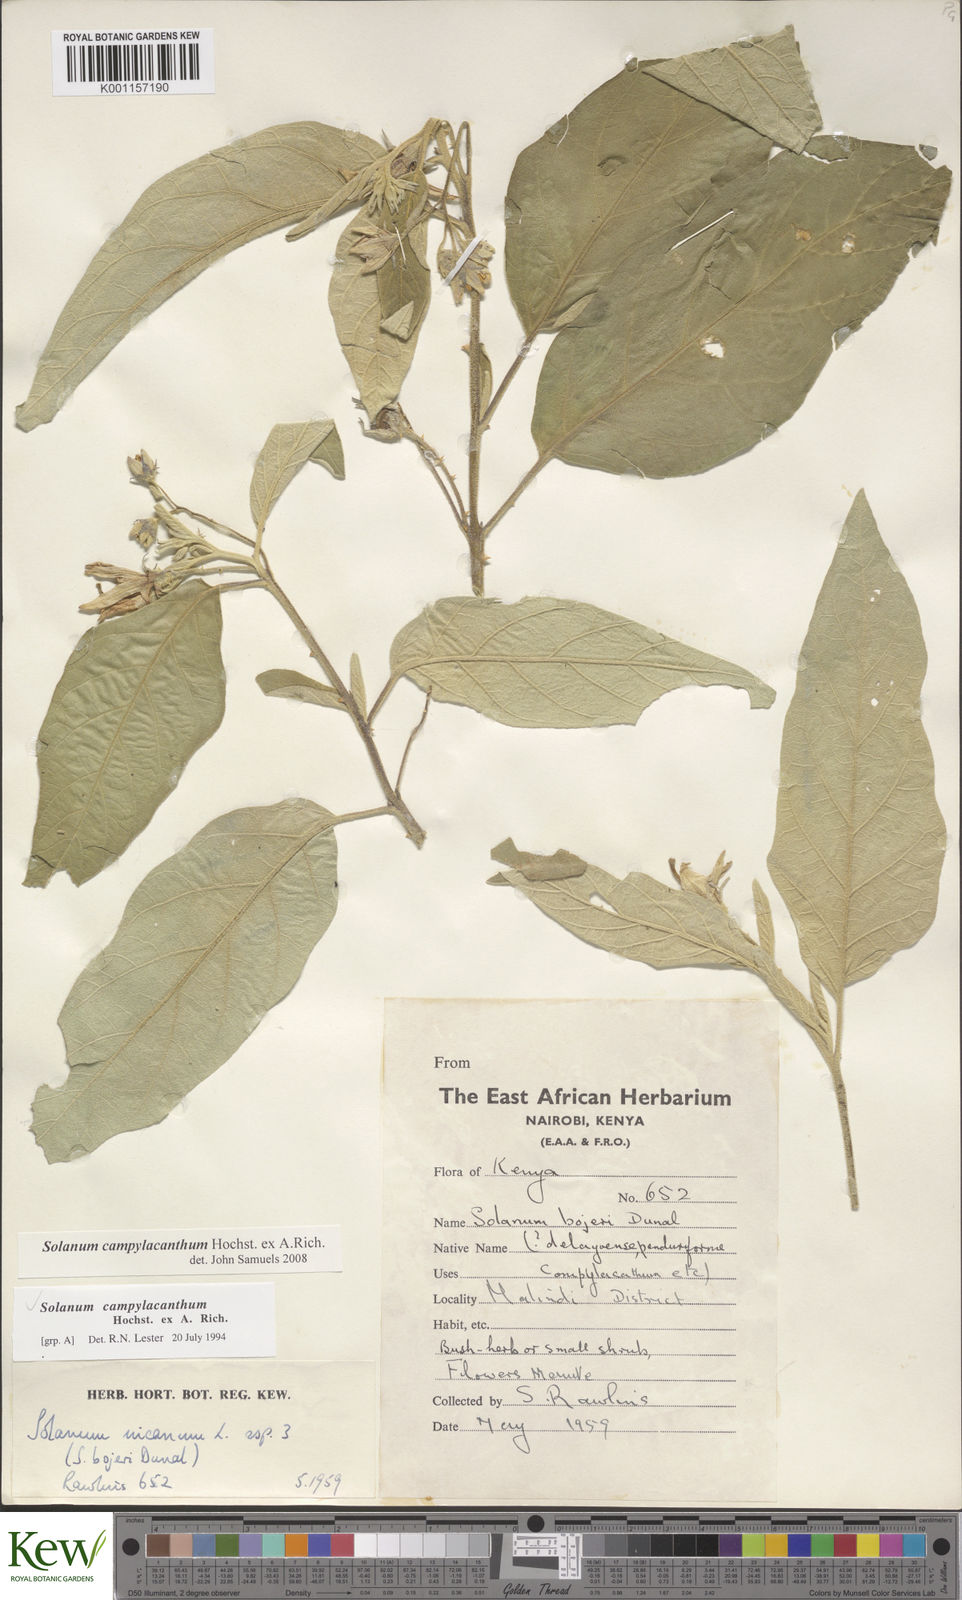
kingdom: Plantae
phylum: Tracheophyta
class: Magnoliopsida
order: Solanales
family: Solanaceae
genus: Solanum
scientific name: Solanum campylacanthum
